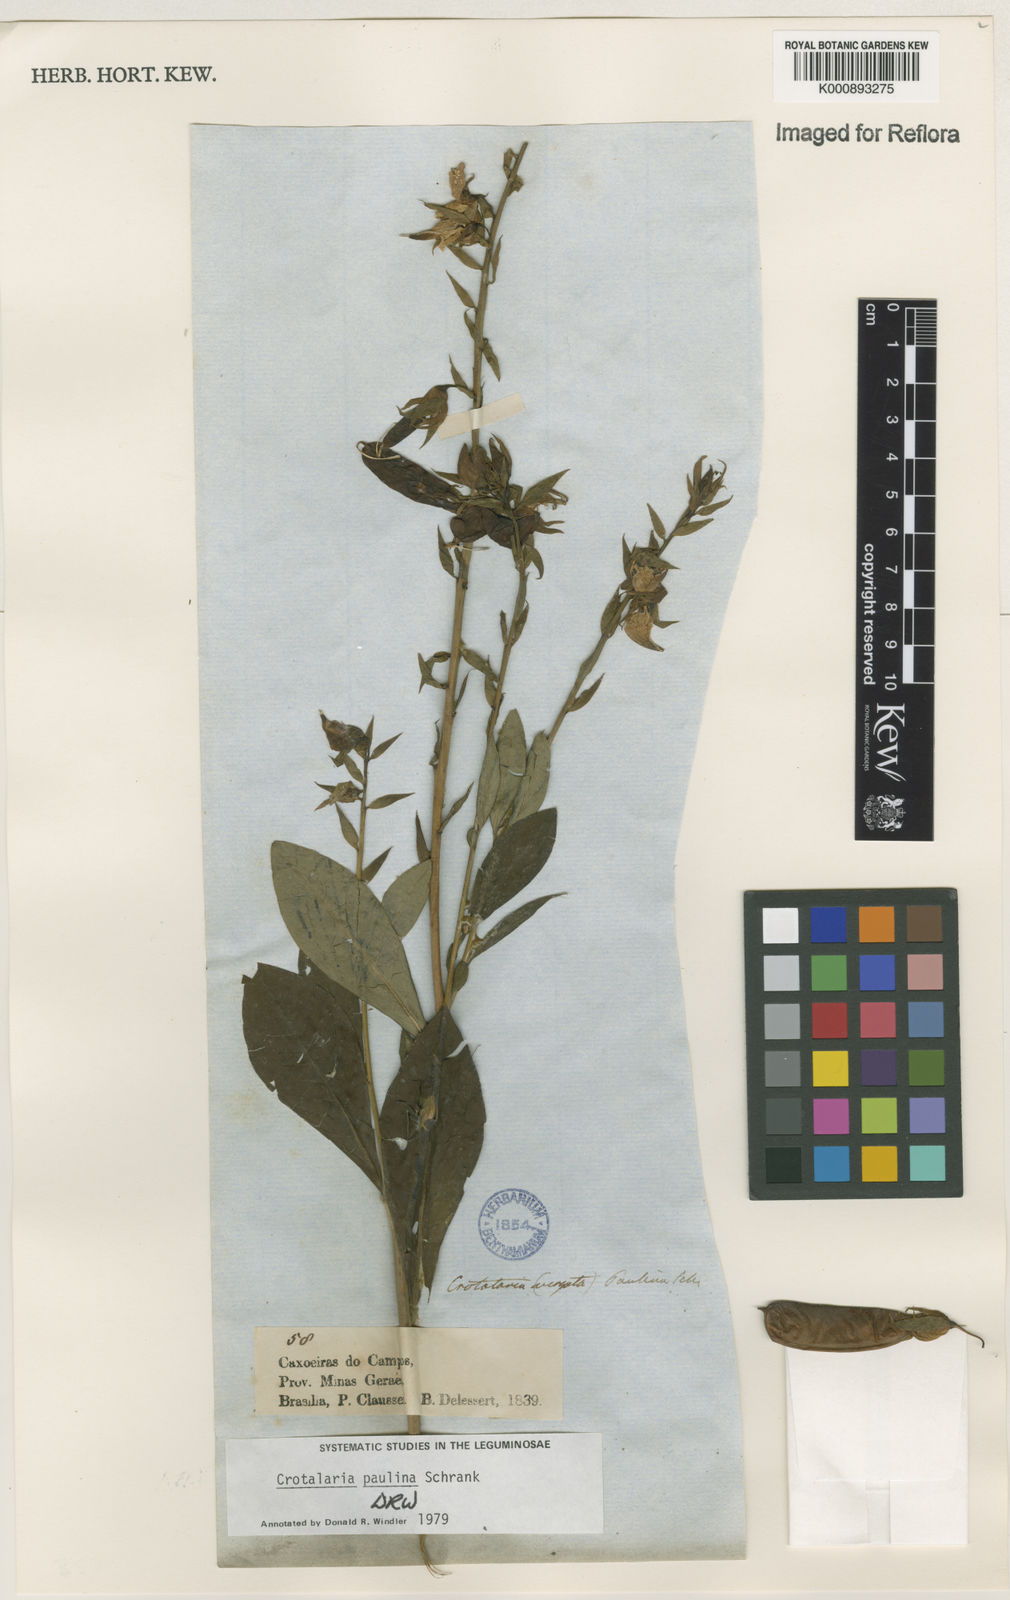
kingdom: Plantae
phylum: Tracheophyta
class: Magnoliopsida
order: Fabales
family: Fabaceae
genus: Crotalaria
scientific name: Crotalaria paulina
